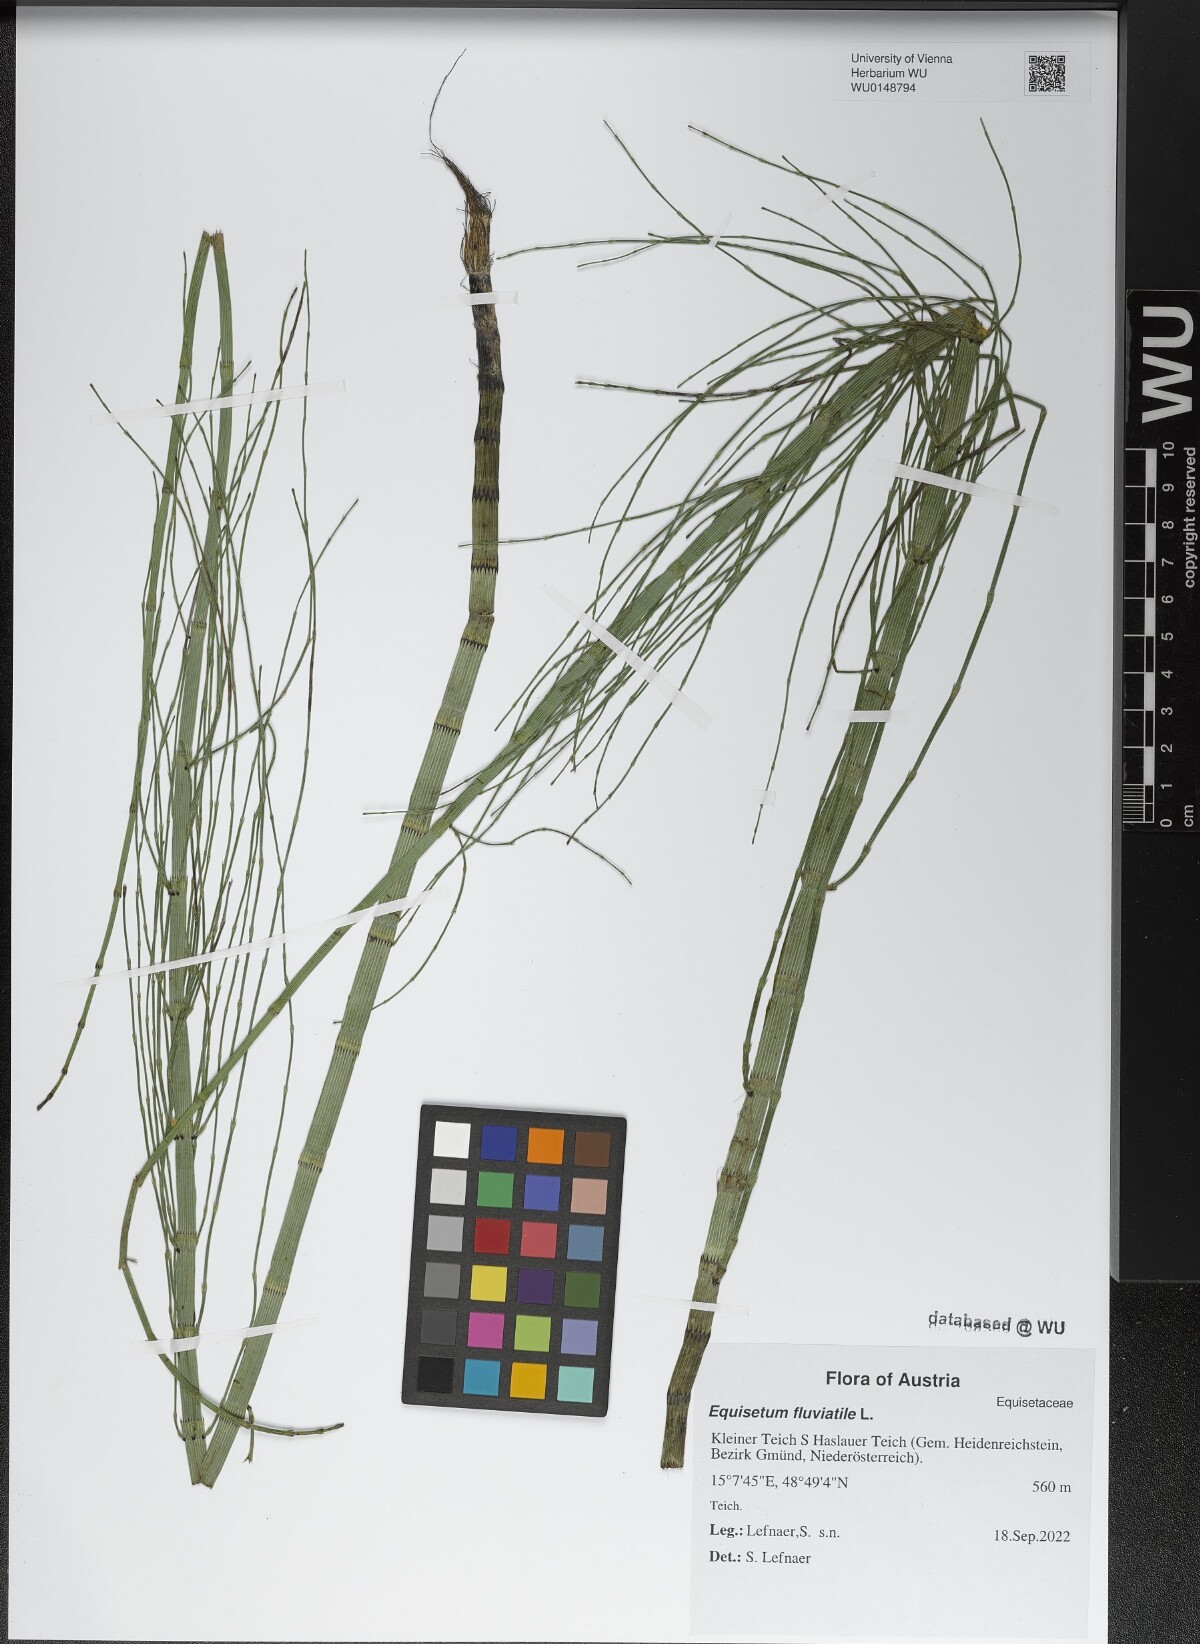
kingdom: Plantae
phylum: Tracheophyta
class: Polypodiopsida
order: Equisetales
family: Equisetaceae
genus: Equisetum
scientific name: Equisetum fluviatile
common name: Water horsetail
